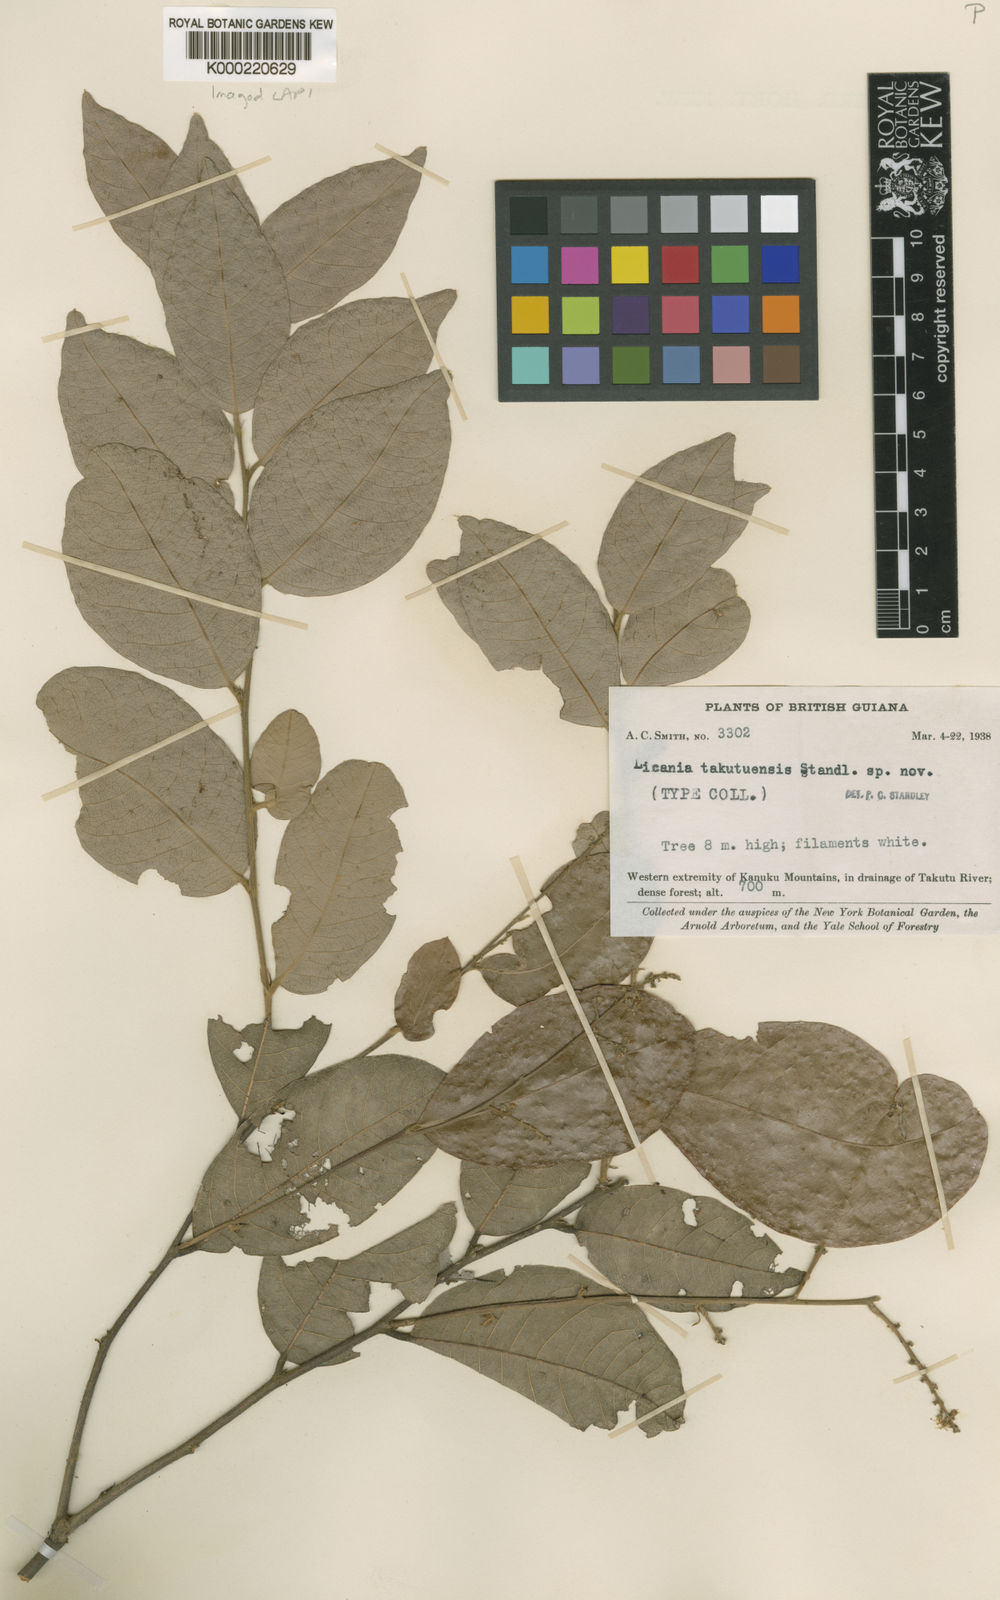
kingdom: Plantae
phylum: Tracheophyta
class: Magnoliopsida
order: Malpighiales
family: Chrysobalanaceae
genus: Leptobalanus
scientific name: Leptobalanus octandrus
